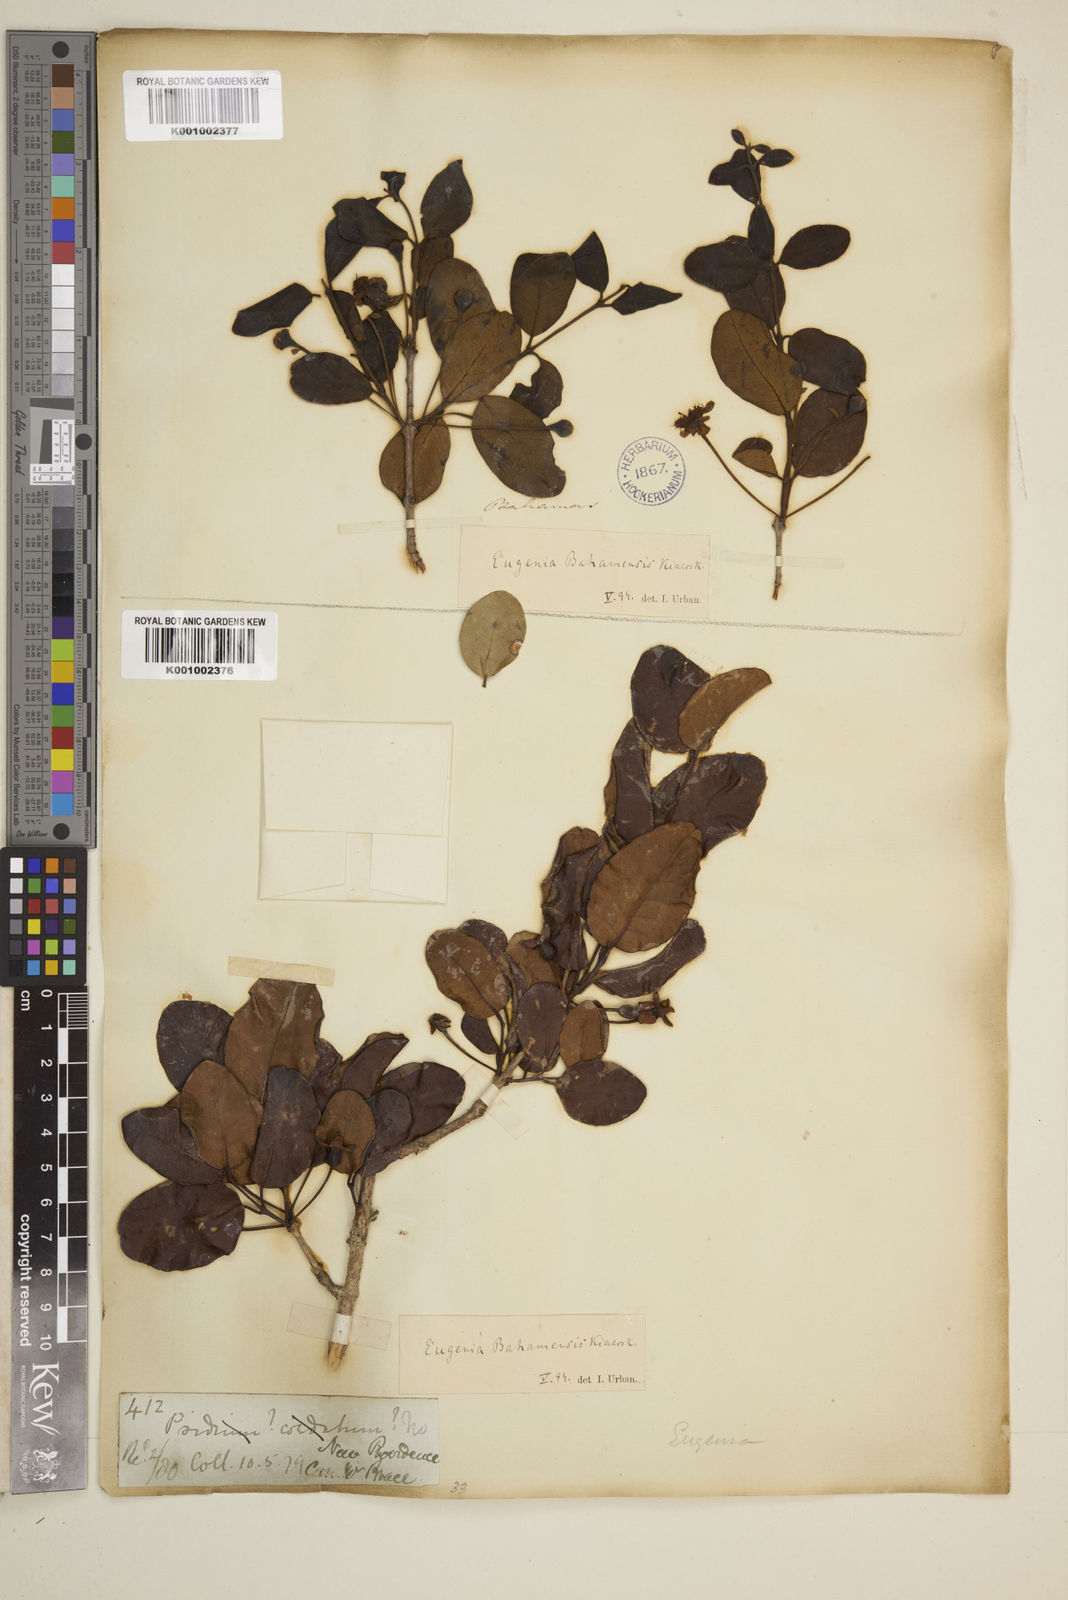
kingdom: Plantae
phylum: Tracheophyta
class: Magnoliopsida
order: Myrtales
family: Myrtaceae
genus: Mosiera
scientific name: Mosiera longipes
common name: Bahama stopper
